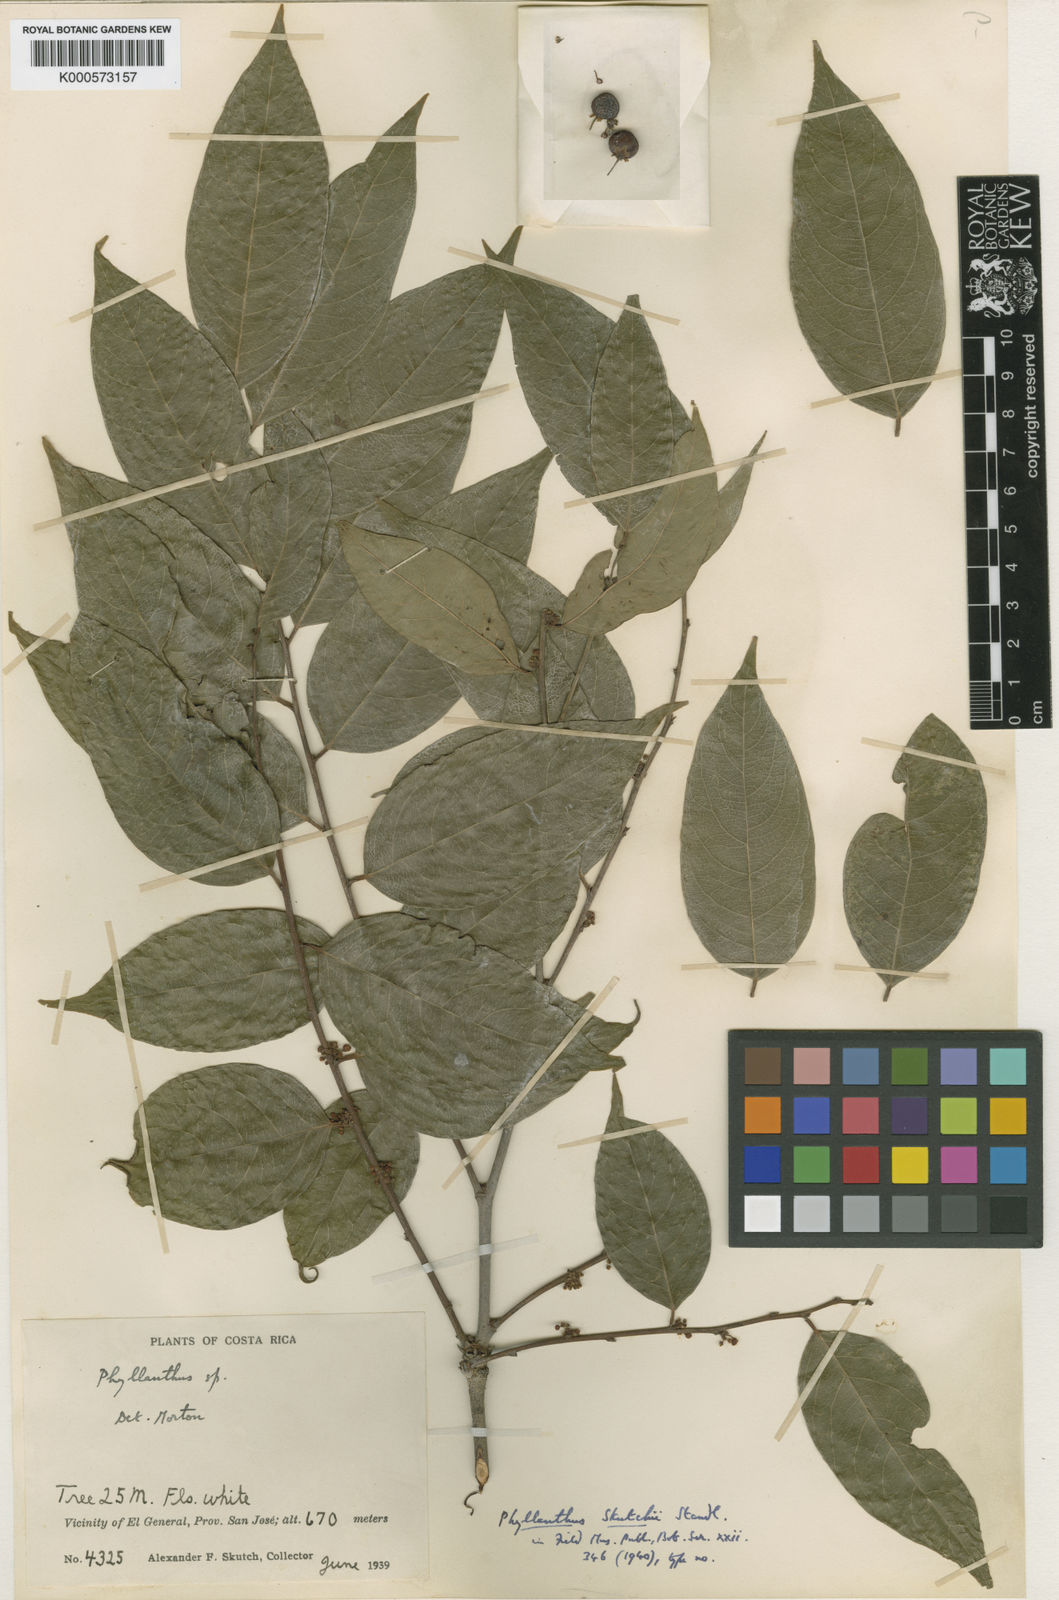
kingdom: Plantae
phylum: Tracheophyta
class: Magnoliopsida
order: Malpighiales
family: Phyllanthaceae
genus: Phyllanthus
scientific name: Phyllanthus skutchii
